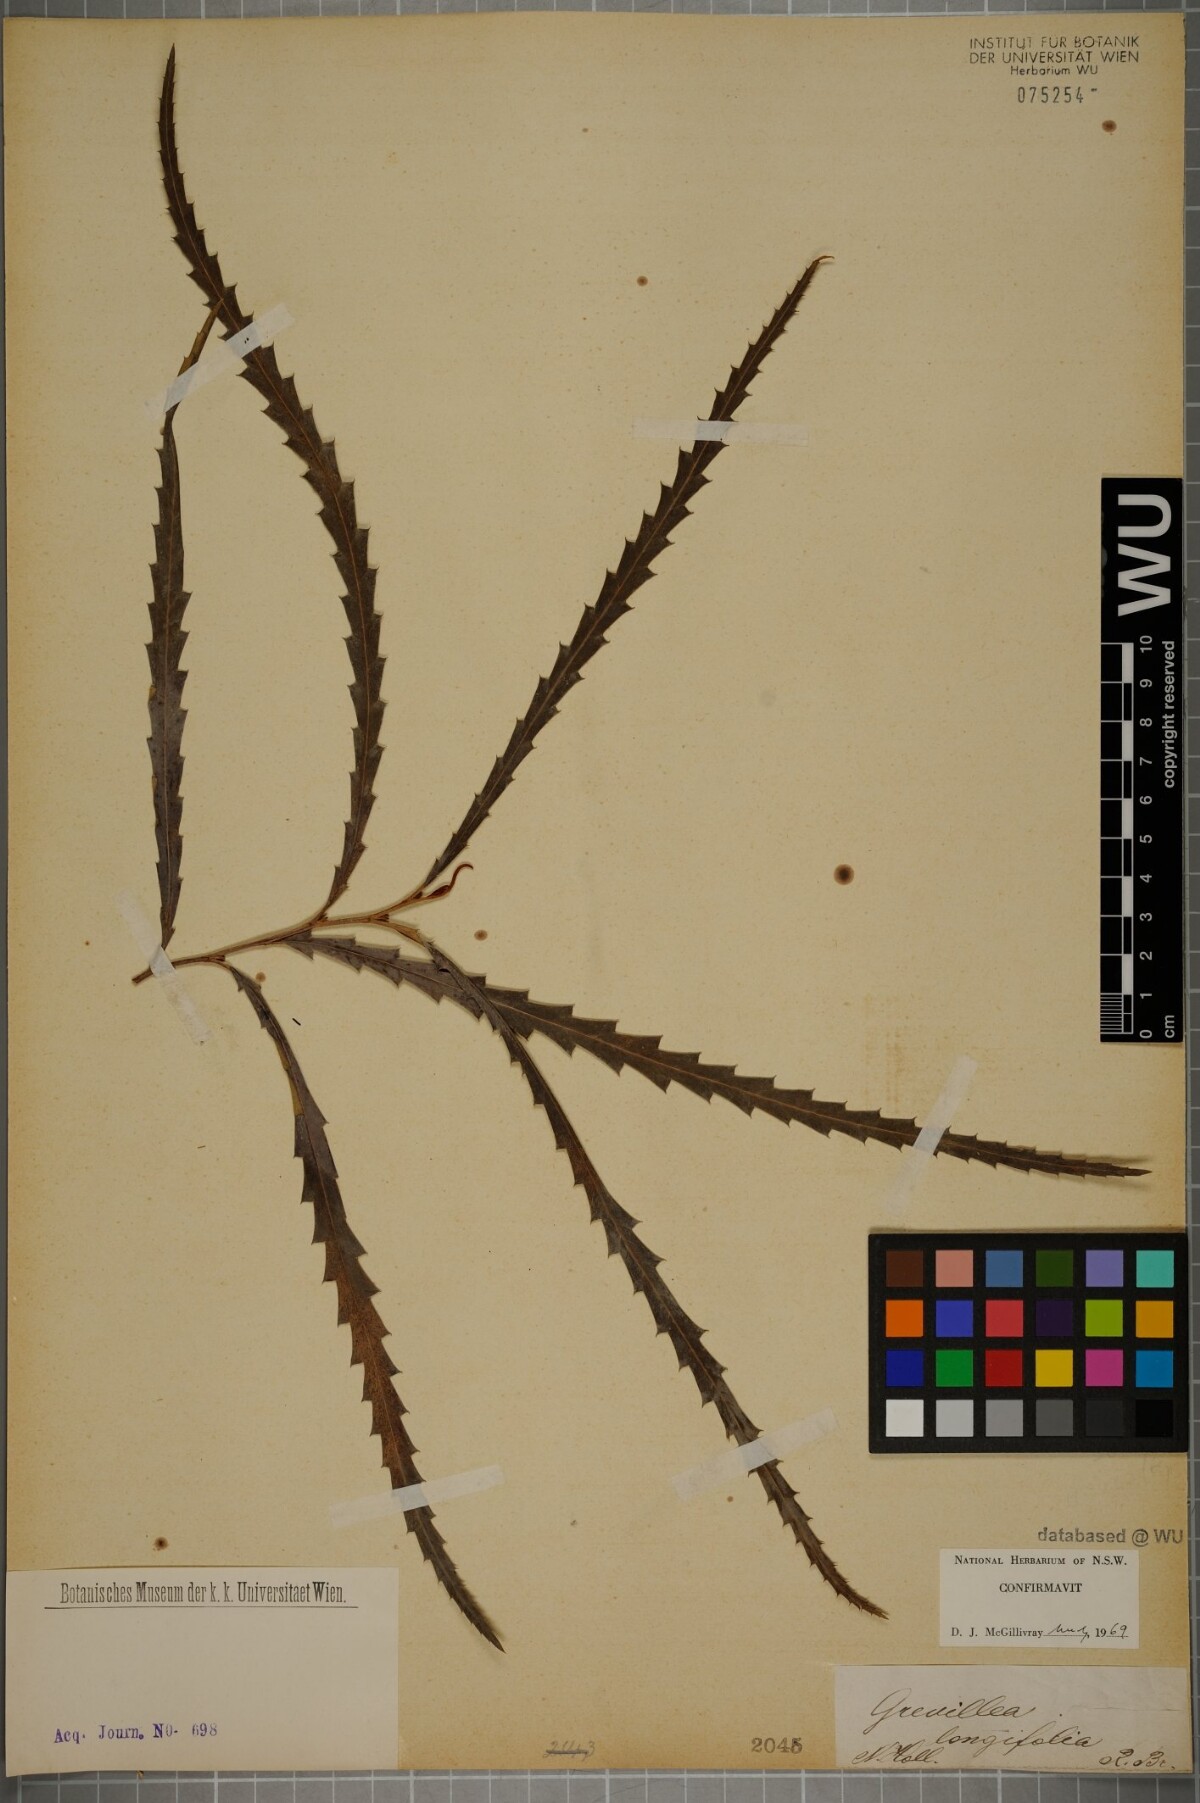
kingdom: Plantae
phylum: Tracheophyta
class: Magnoliopsida
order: Proteales
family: Proteaceae
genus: Grevillea
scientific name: Grevillea longifolia
